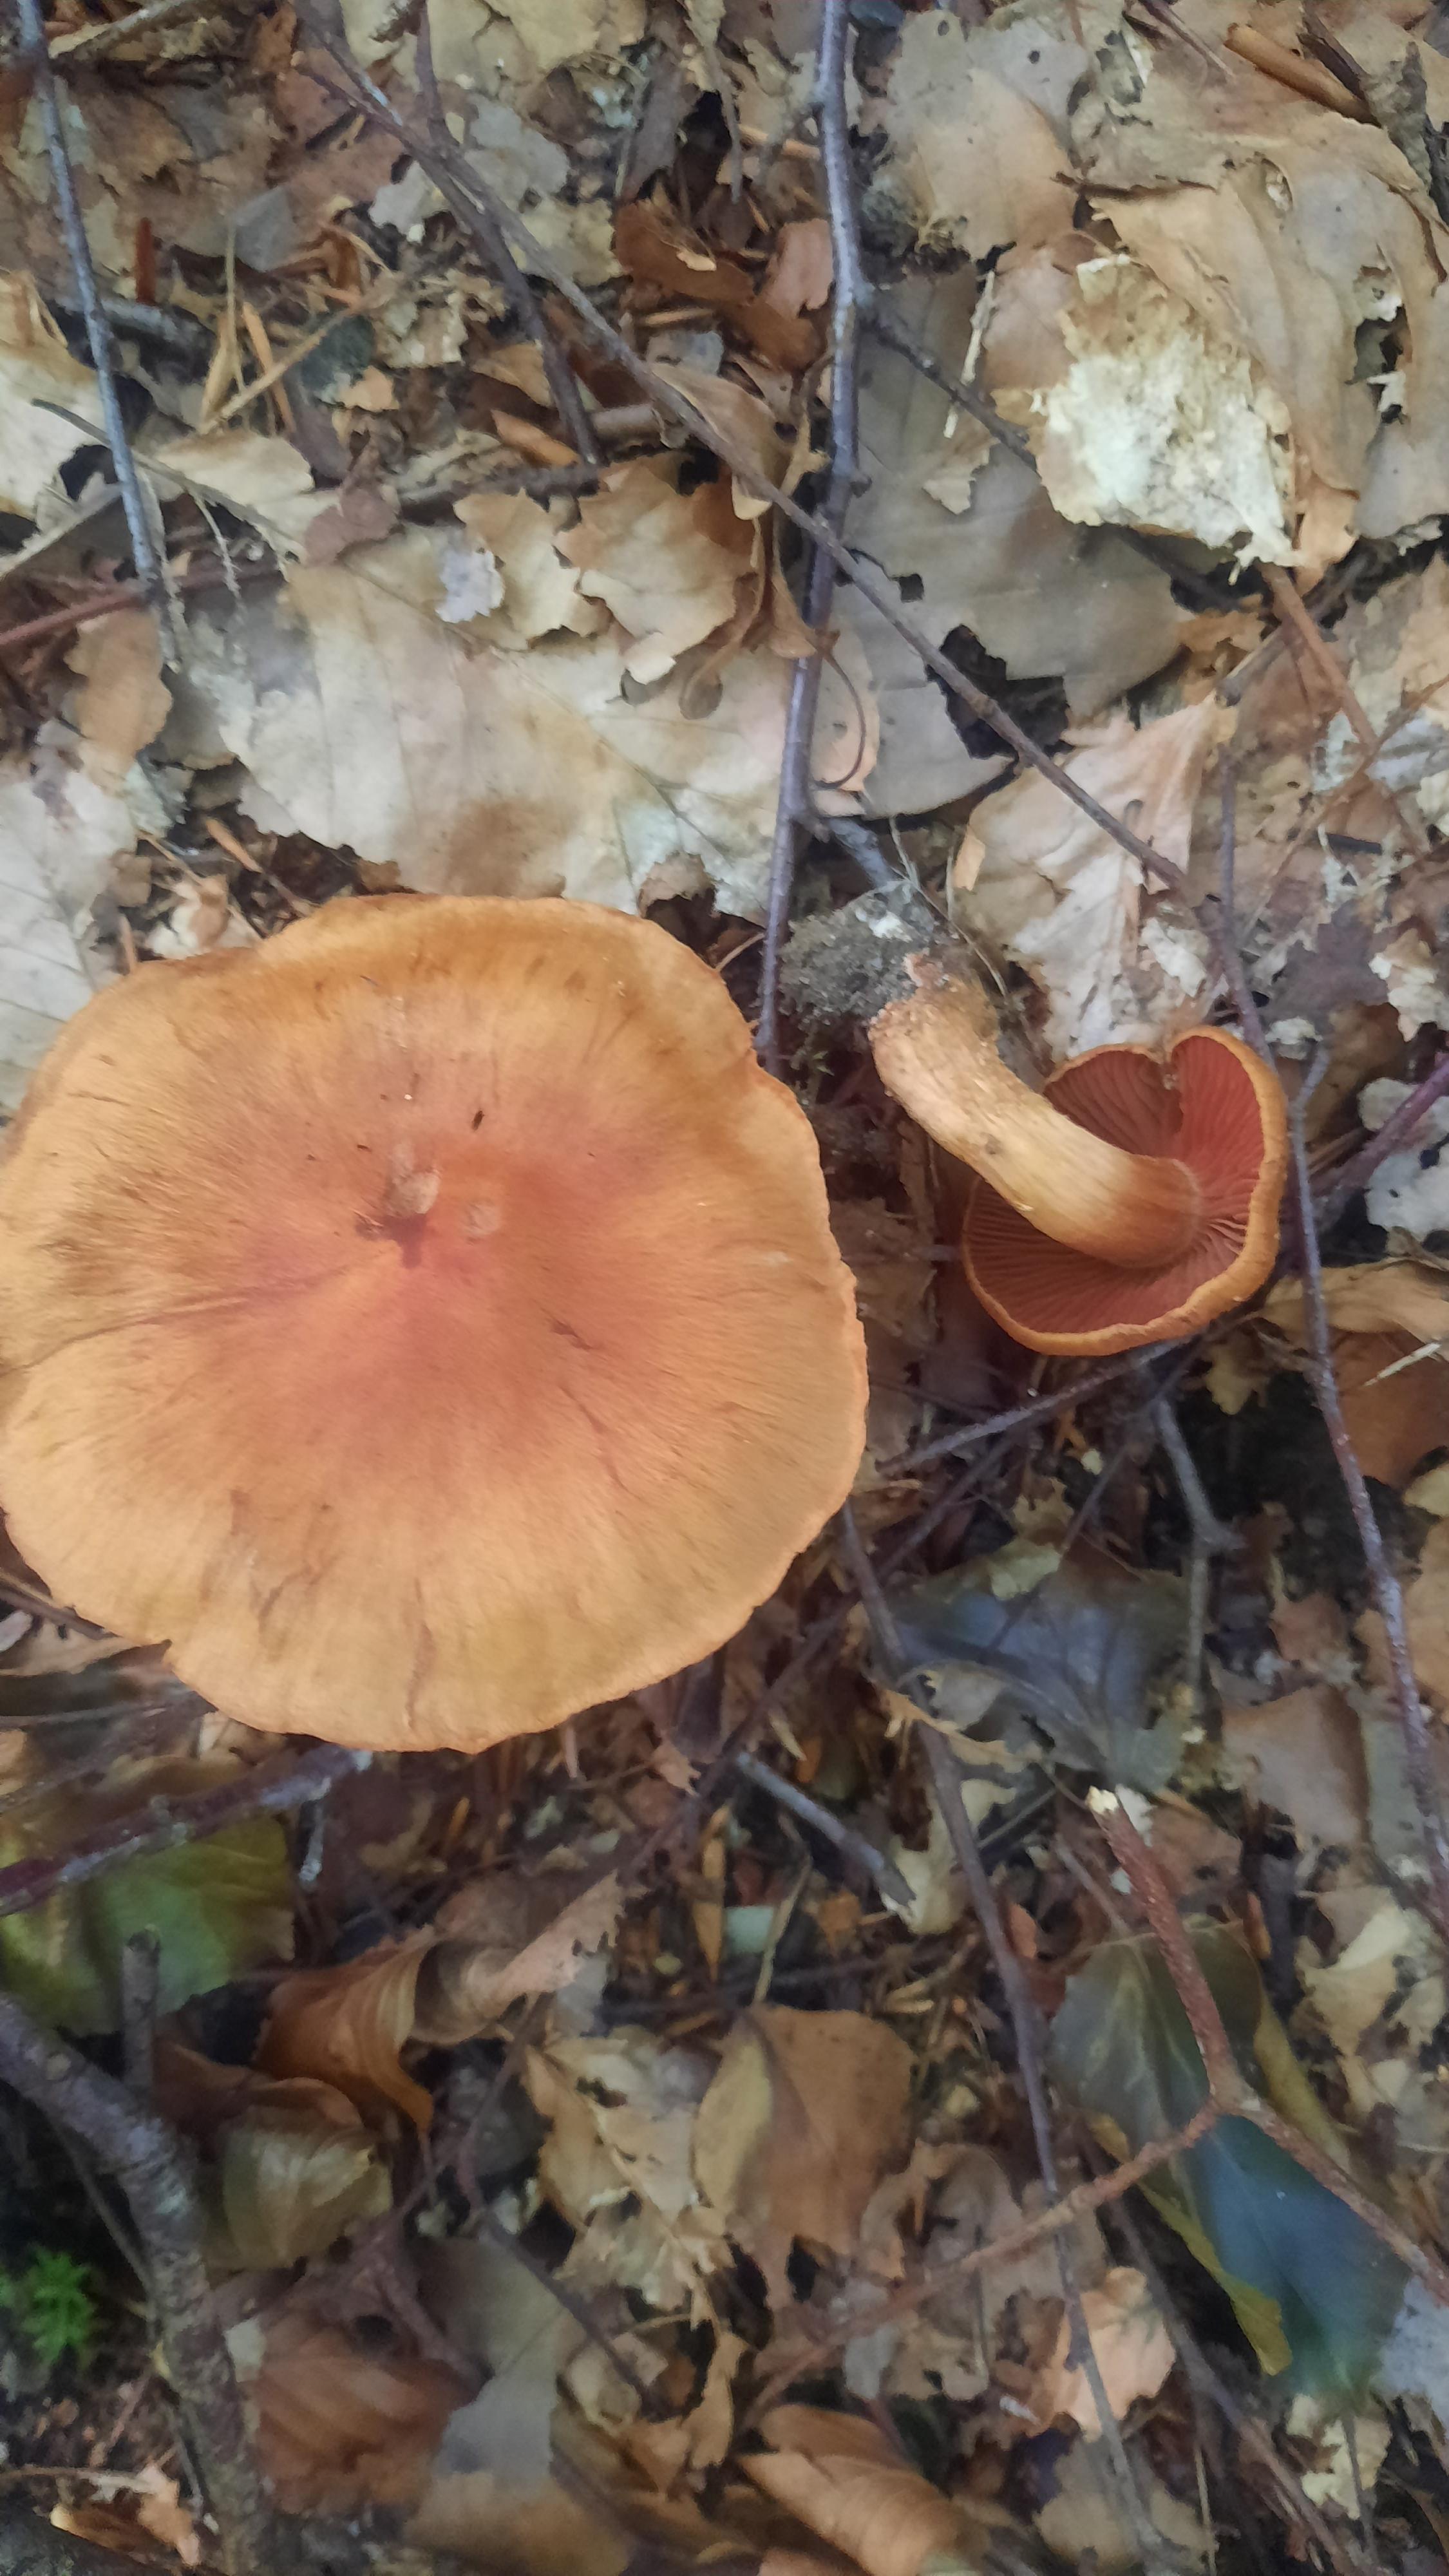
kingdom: Fungi
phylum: Basidiomycota
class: Agaricomycetes
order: Agaricales
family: Cortinariaceae
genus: Cortinarius
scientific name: Cortinarius
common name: cinnoberbladet slørhat
